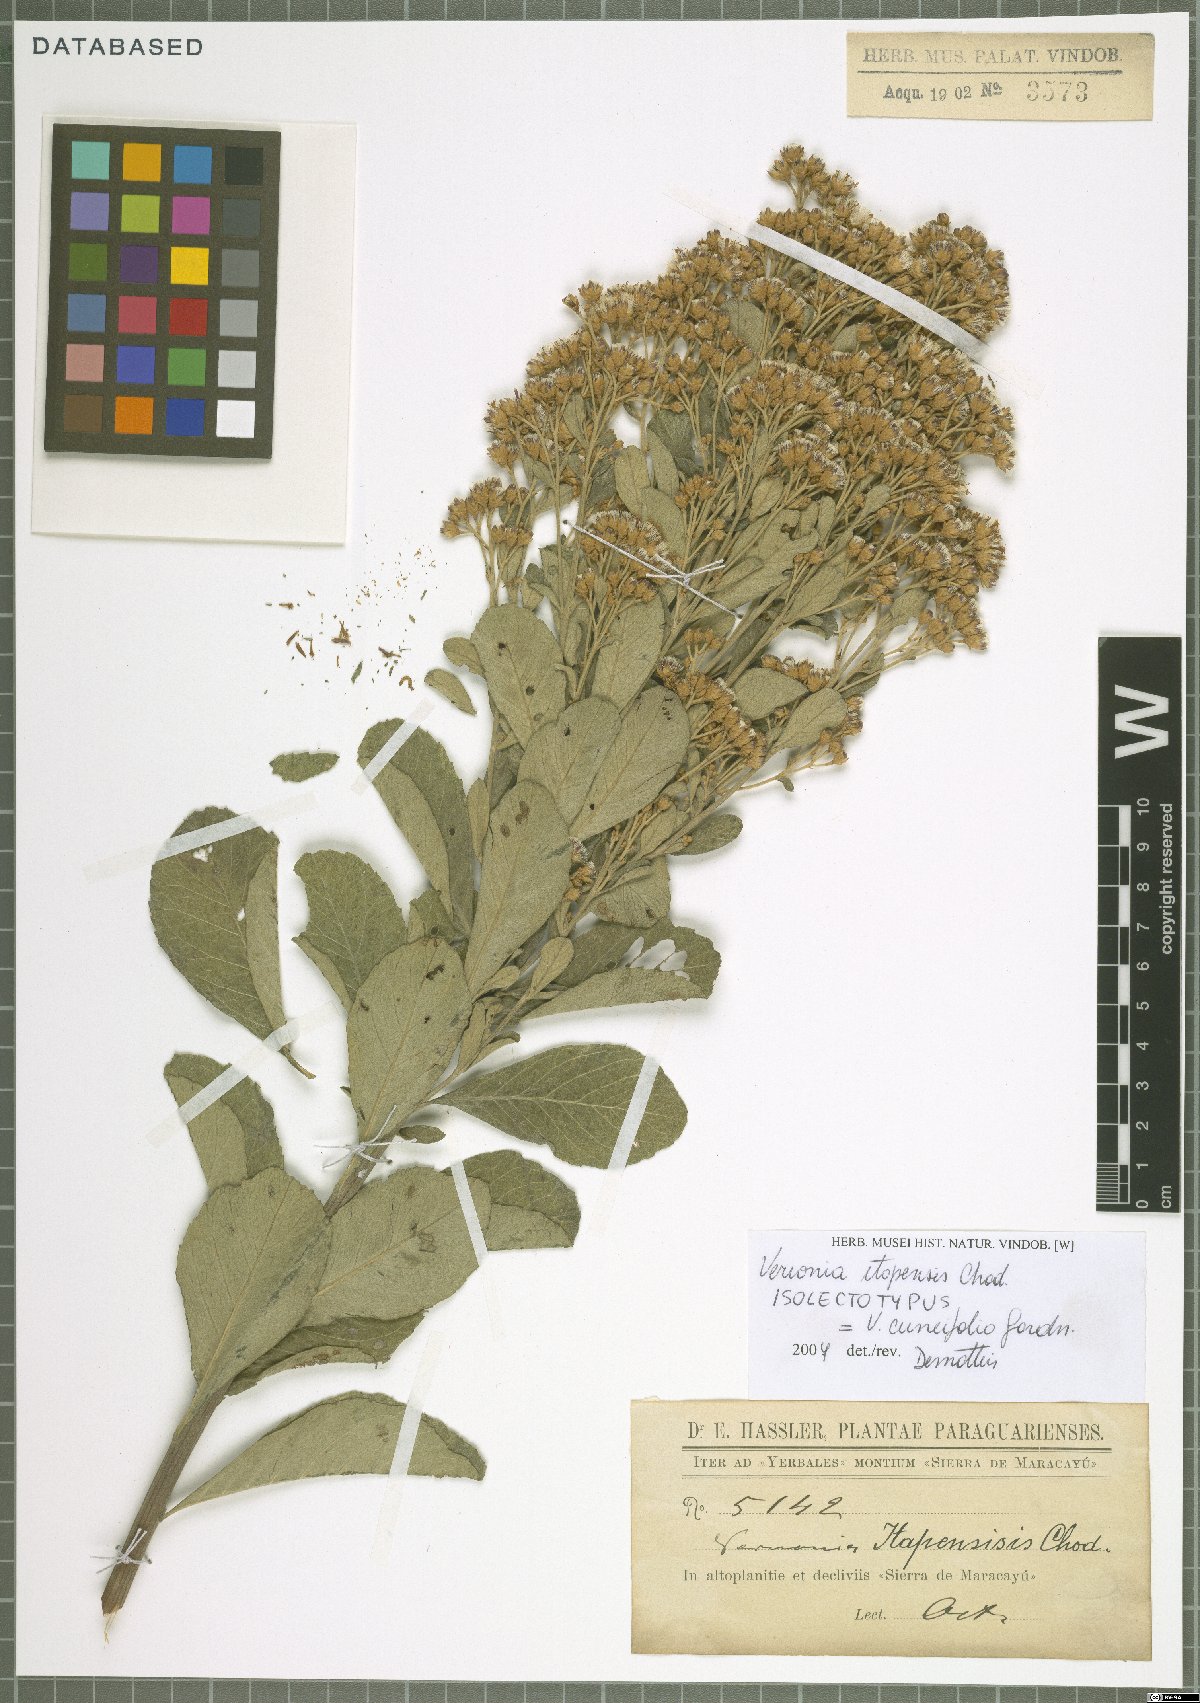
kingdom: Plantae
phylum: Tracheophyta
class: Magnoliopsida
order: Asterales
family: Asteraceae
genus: Vernonanthura
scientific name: Vernonanthura cuneifolia
